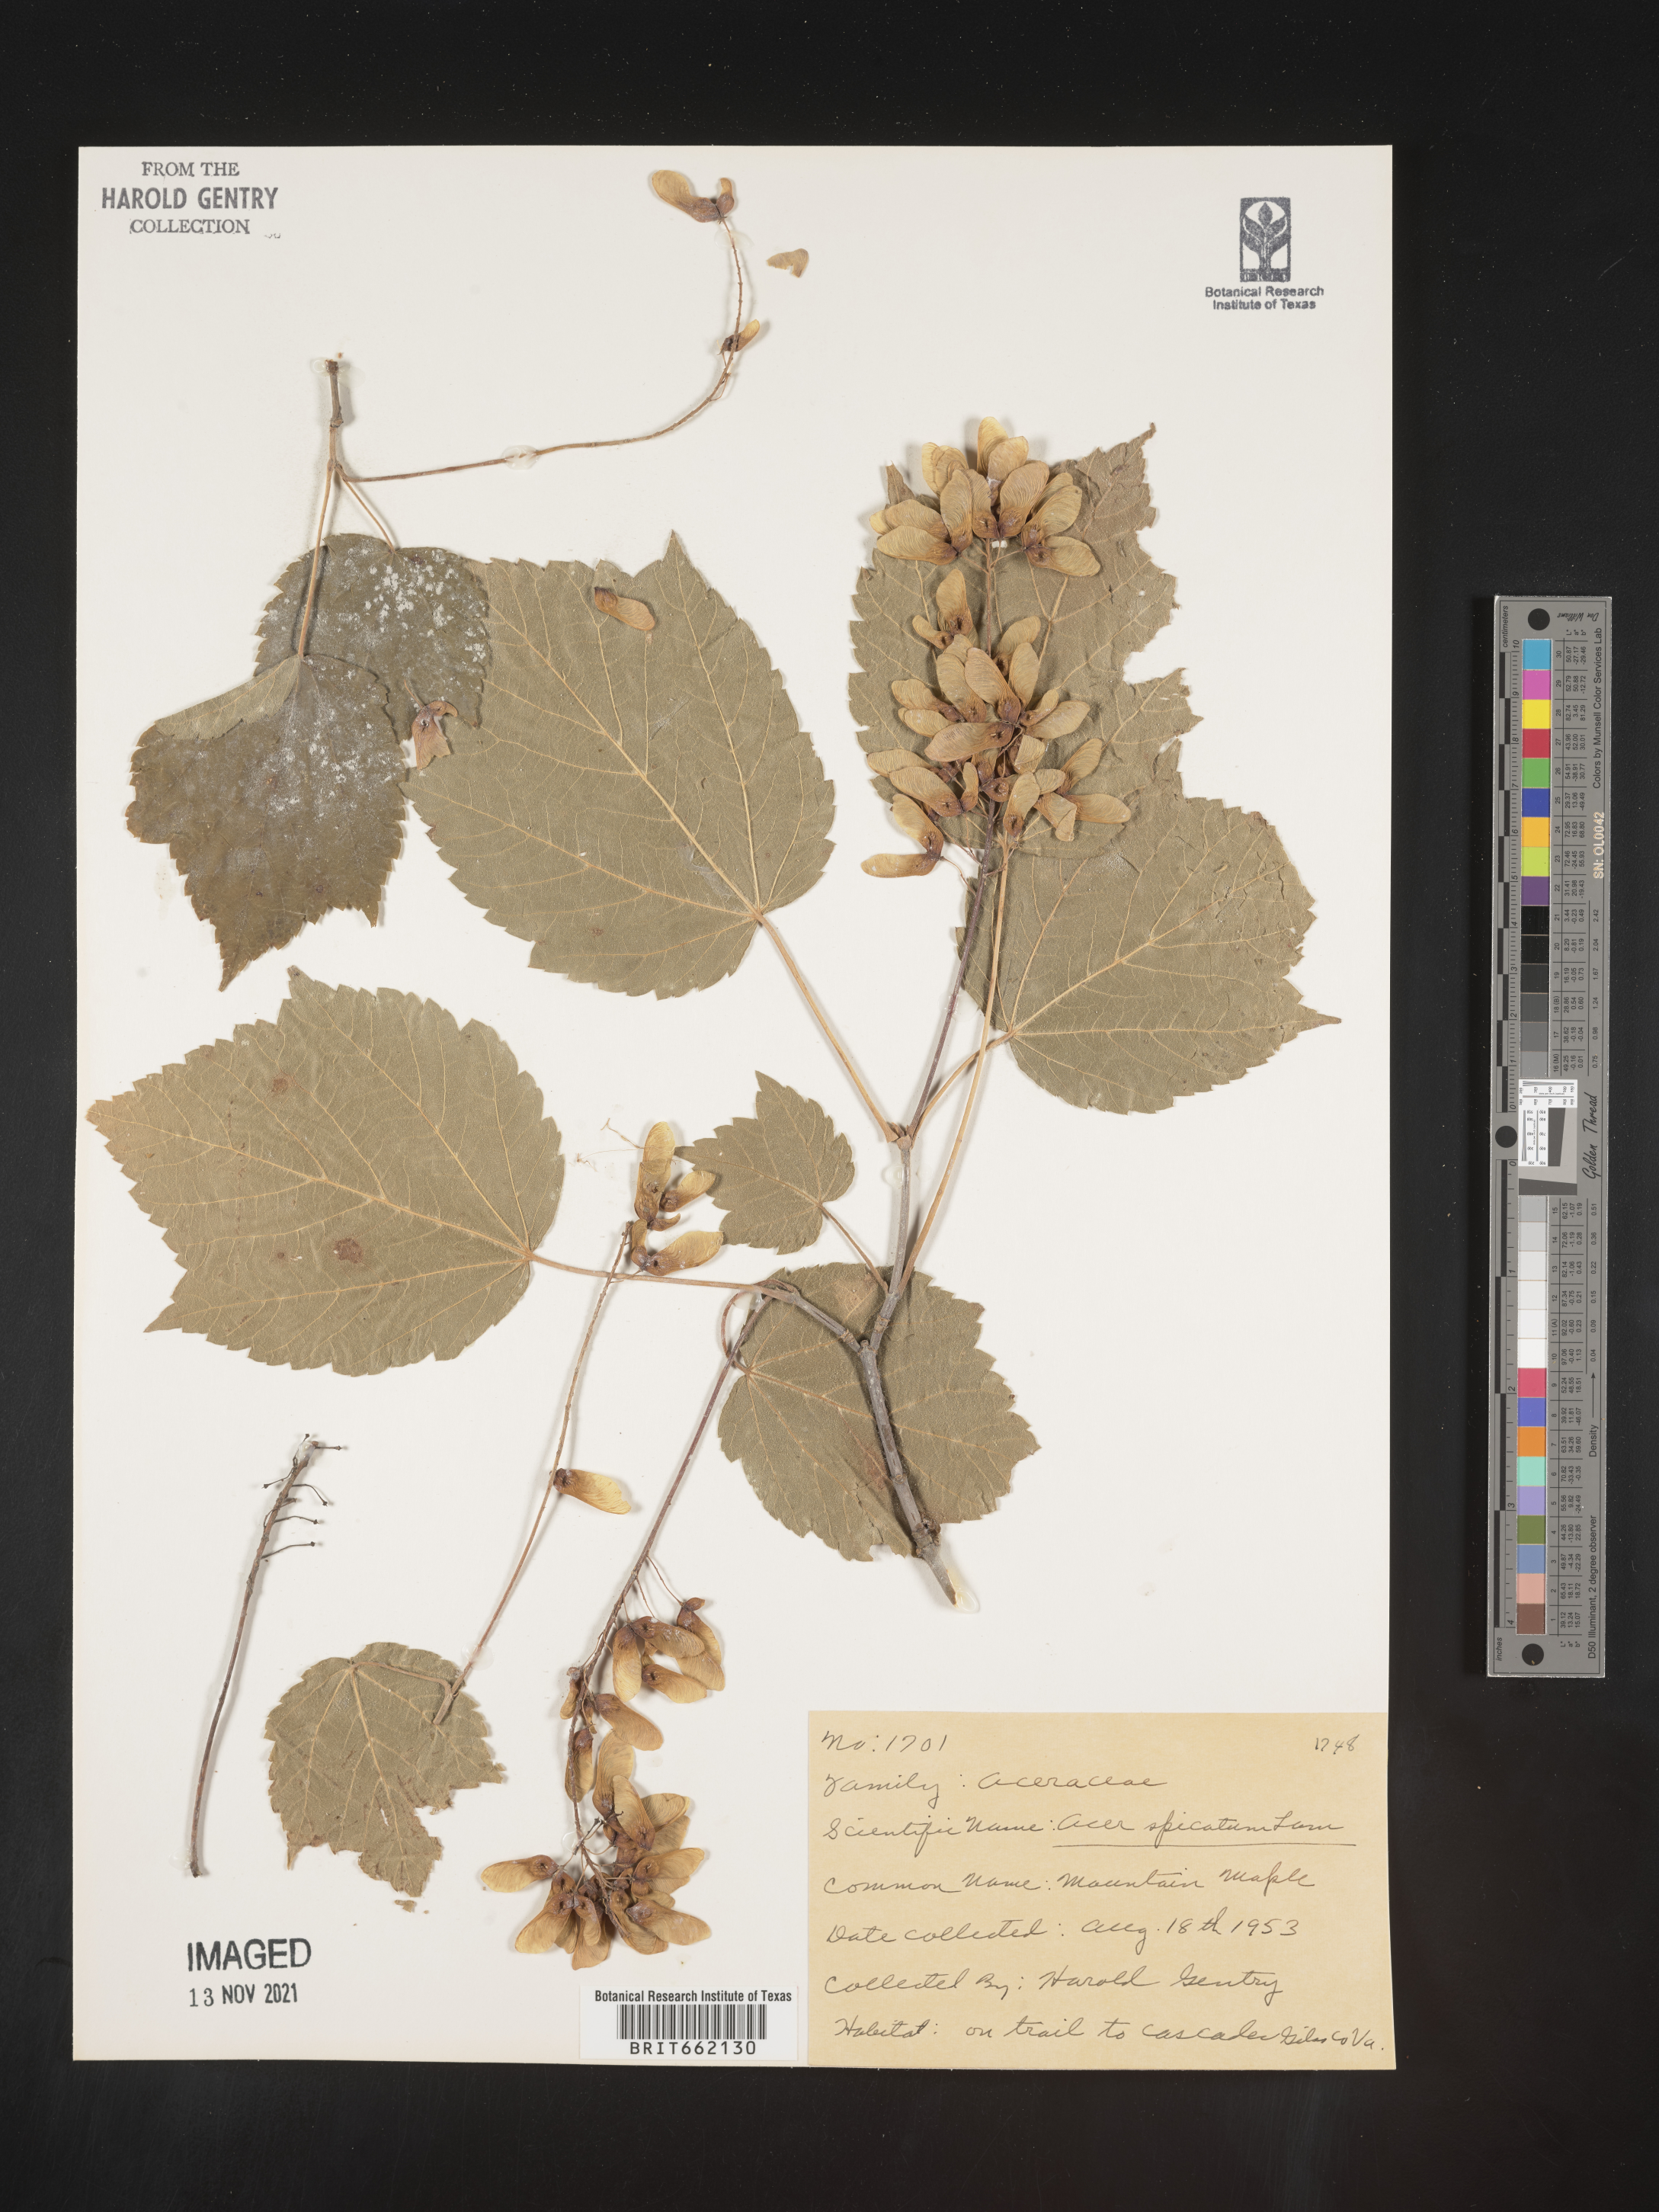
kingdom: Plantae
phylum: Tracheophyta
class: Magnoliopsida
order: Sapindales
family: Sapindaceae
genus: Acer
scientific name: Acer spicatum
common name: Mountain maple
